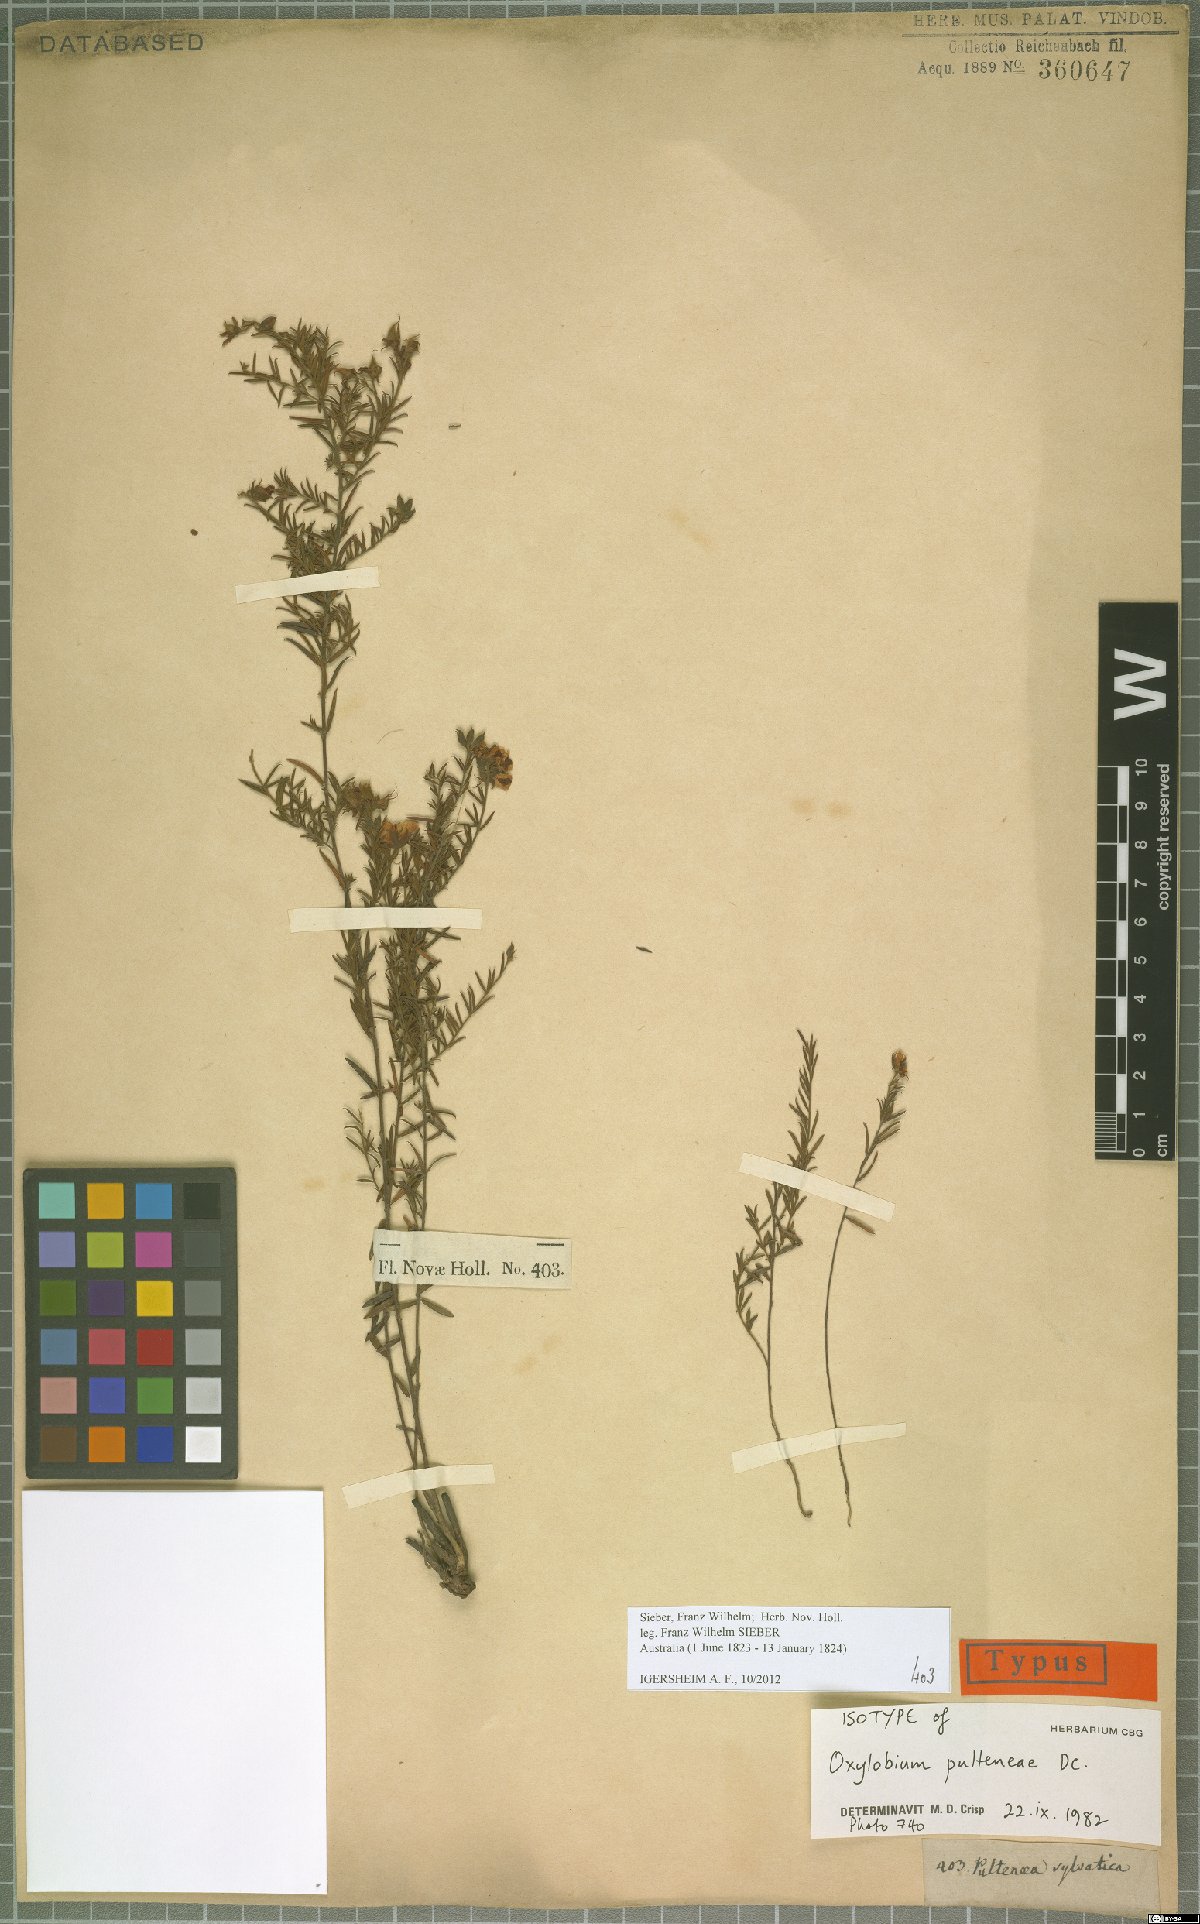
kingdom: Plantae
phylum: Tracheophyta
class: Magnoliopsida
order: Fabales
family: Fabaceae
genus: Oxylobium
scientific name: Oxylobium pulteneae
